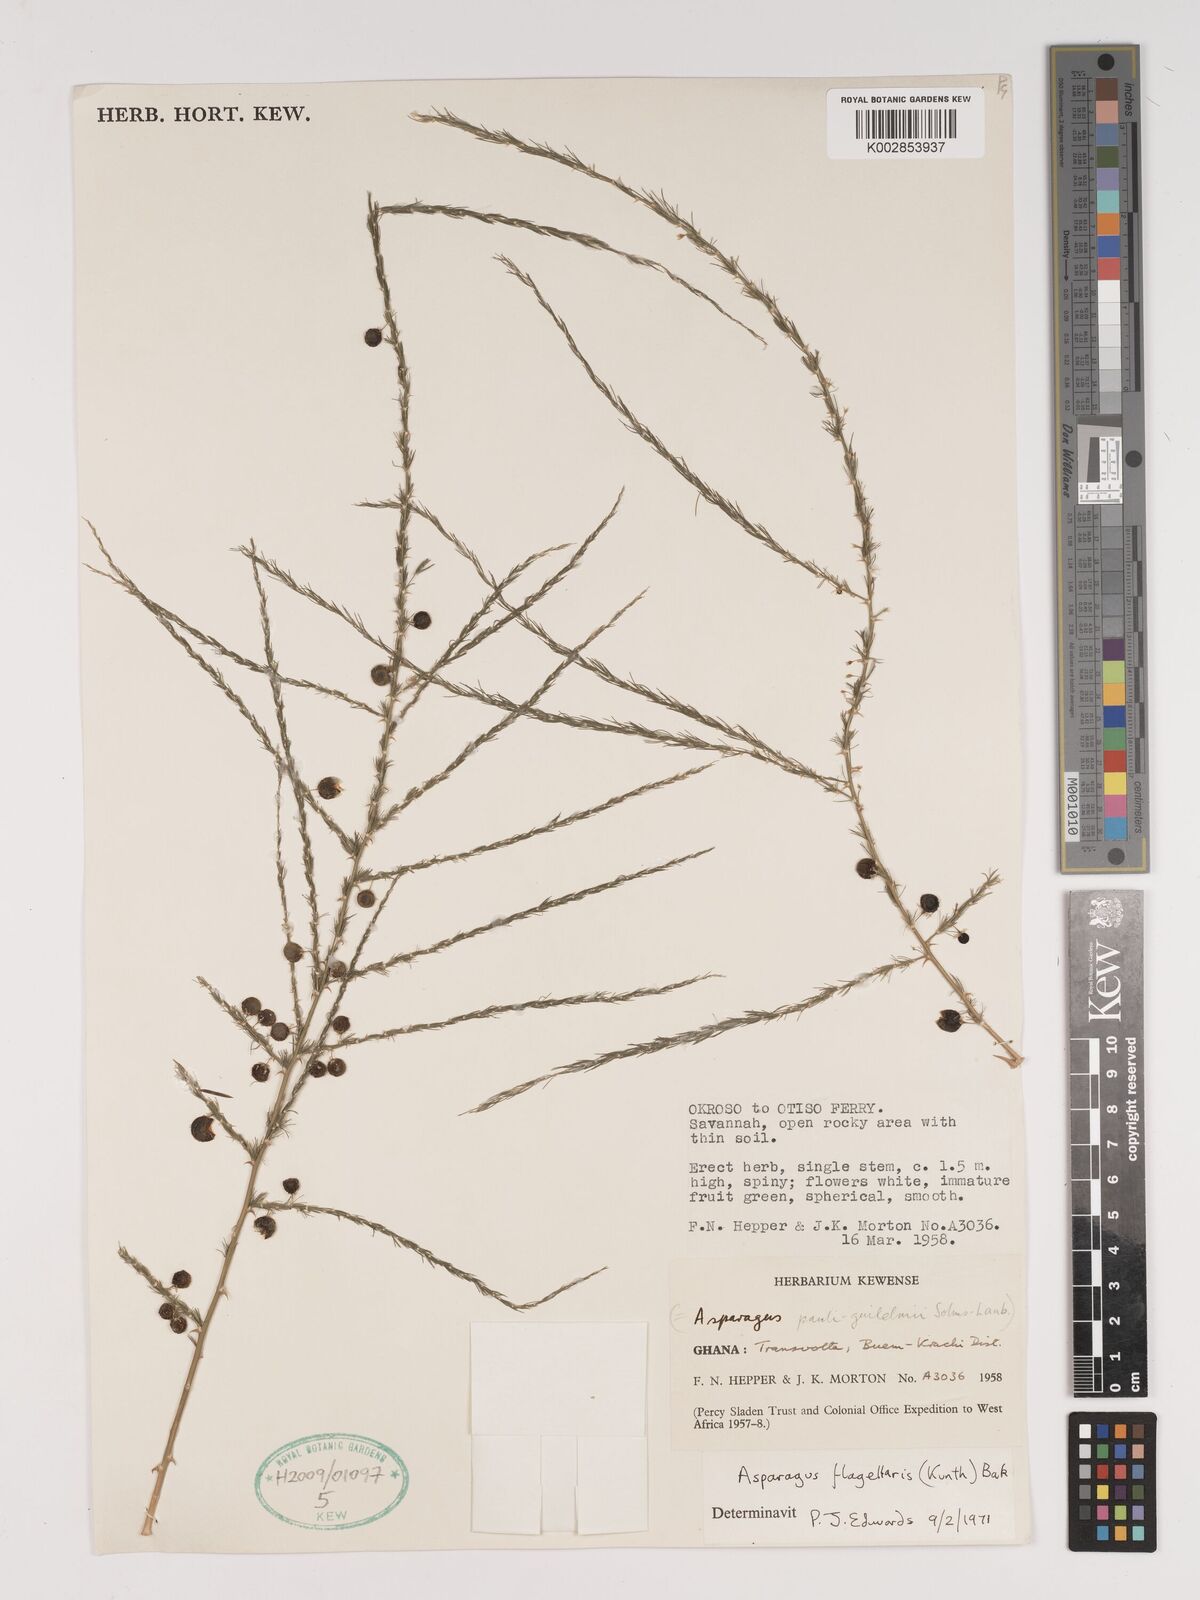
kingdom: Plantae
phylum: Tracheophyta
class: Liliopsida
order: Asparagales
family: Asparagaceae
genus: Asparagus
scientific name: Asparagus flagellaris
